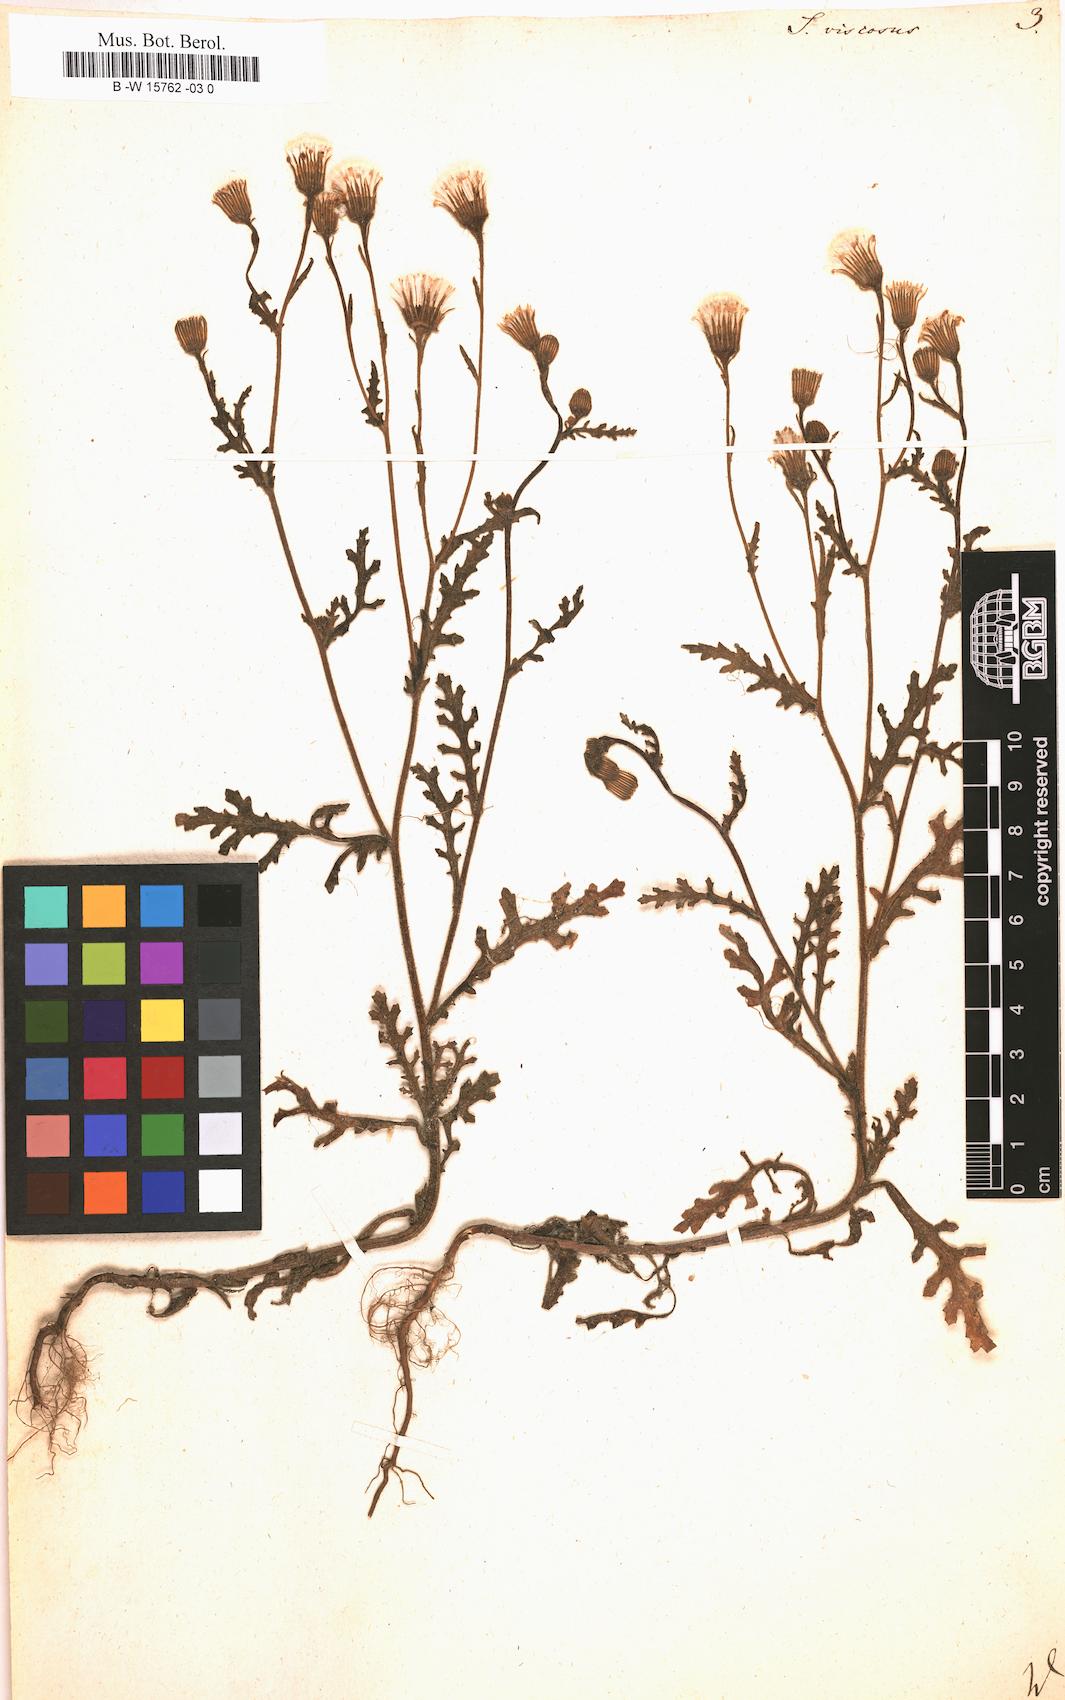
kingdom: Plantae
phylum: Tracheophyta
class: Magnoliopsida
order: Asterales
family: Asteraceae
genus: Senecio
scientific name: Senecio viscosus
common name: Sticky groundsel
